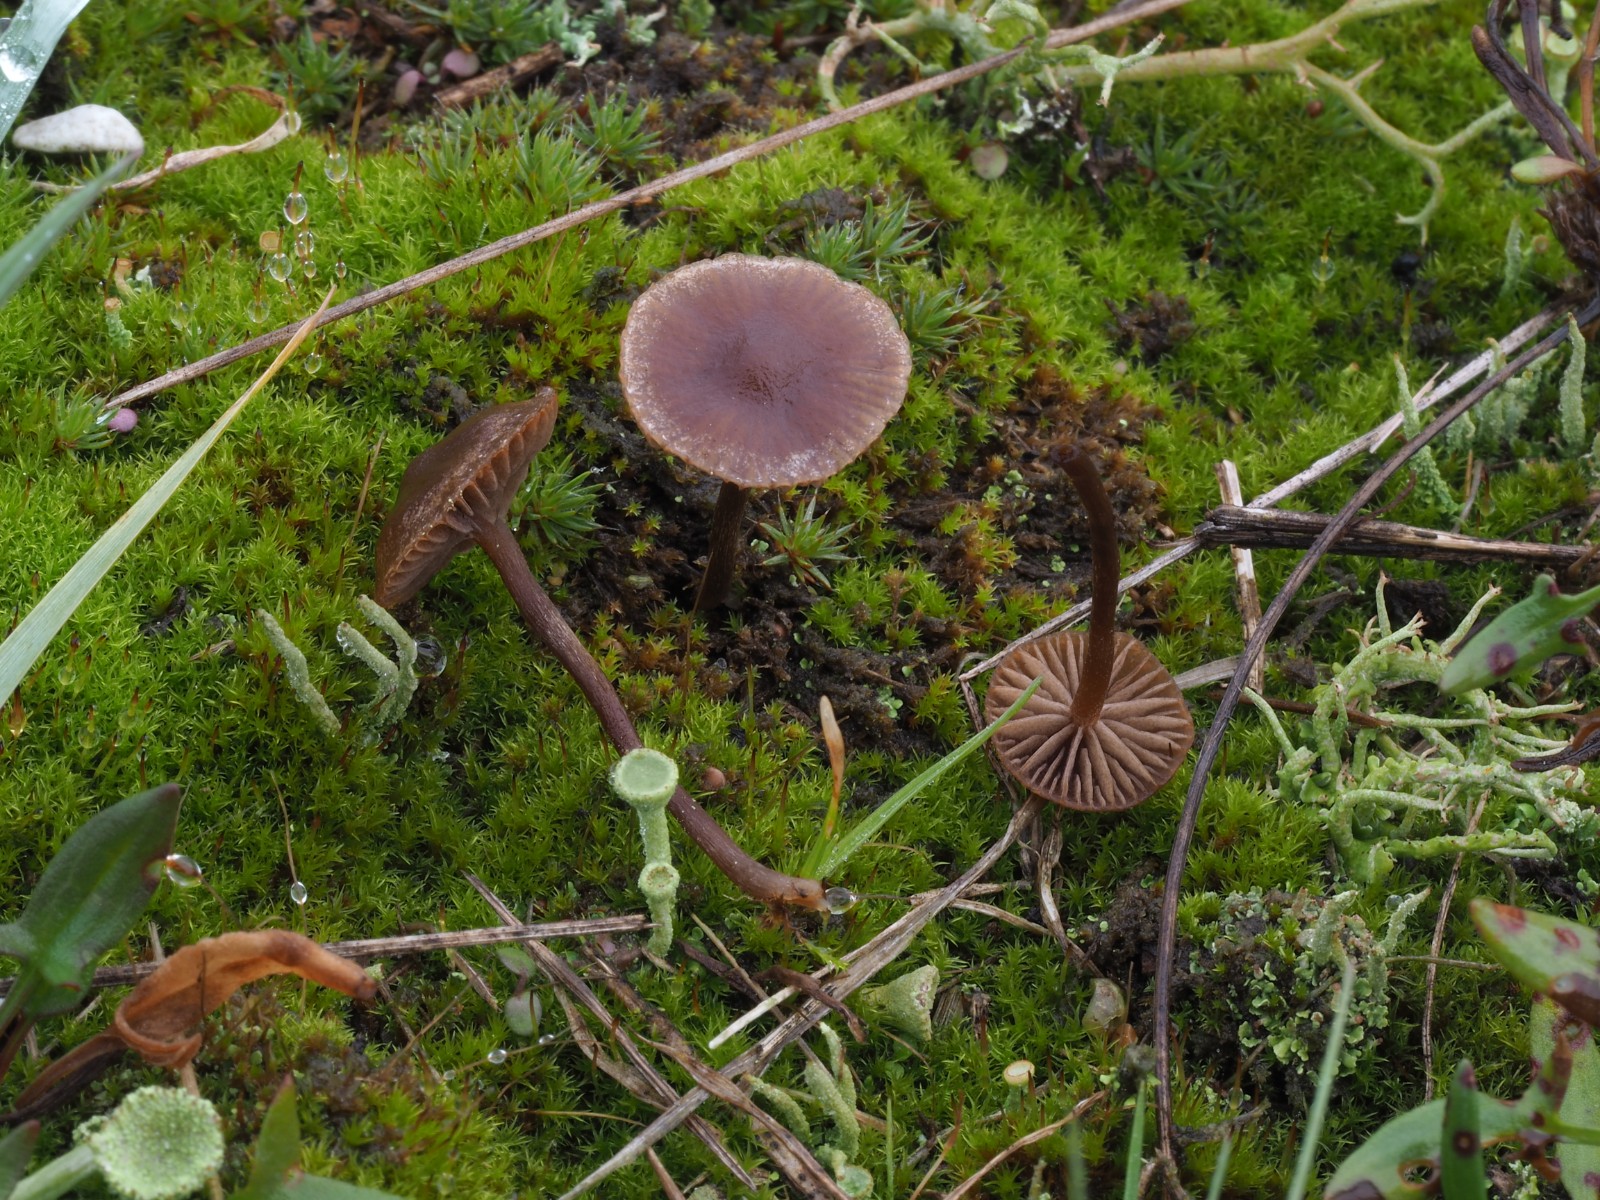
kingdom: Fungi
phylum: Basidiomycota
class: Agaricomycetes
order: Agaricales
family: Strophariaceae
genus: Deconica
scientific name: Deconica montana
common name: rødbrun stråhat
